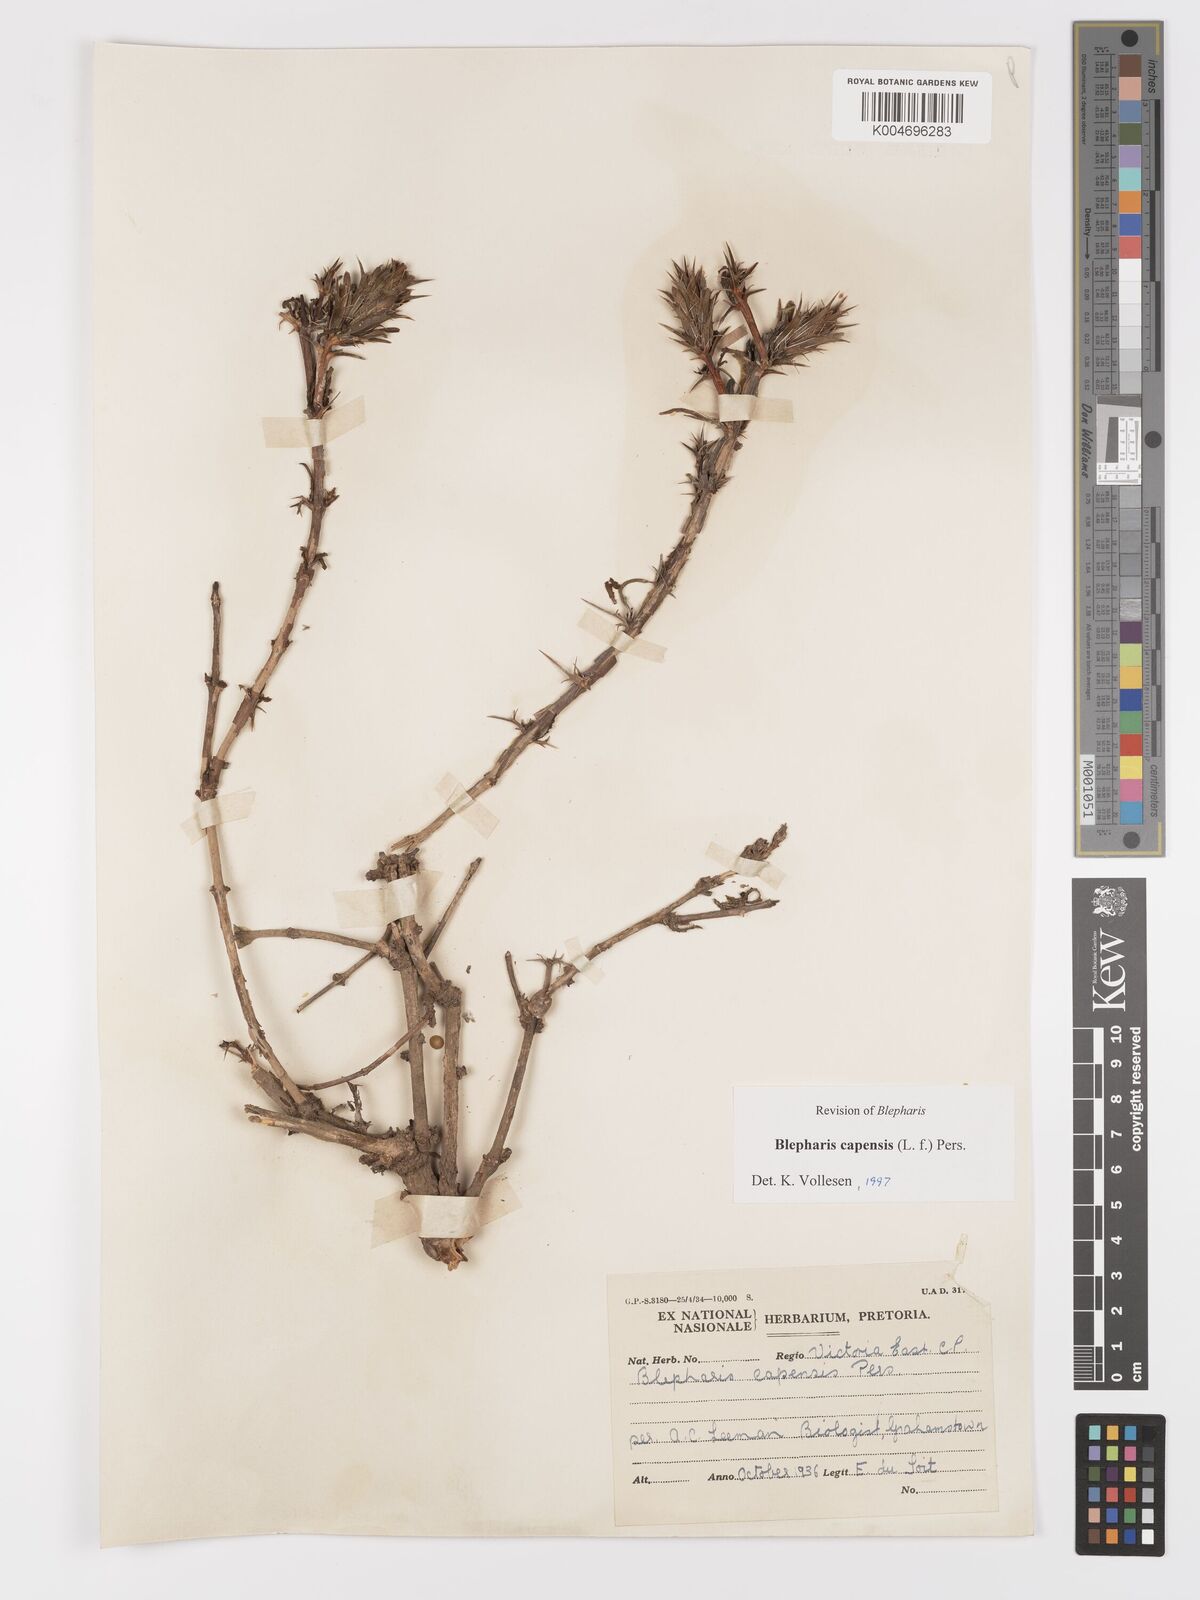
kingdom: Plantae
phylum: Tracheophyta
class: Magnoliopsida
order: Lamiales
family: Acanthaceae
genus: Blepharis
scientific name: Blepharis capensis
